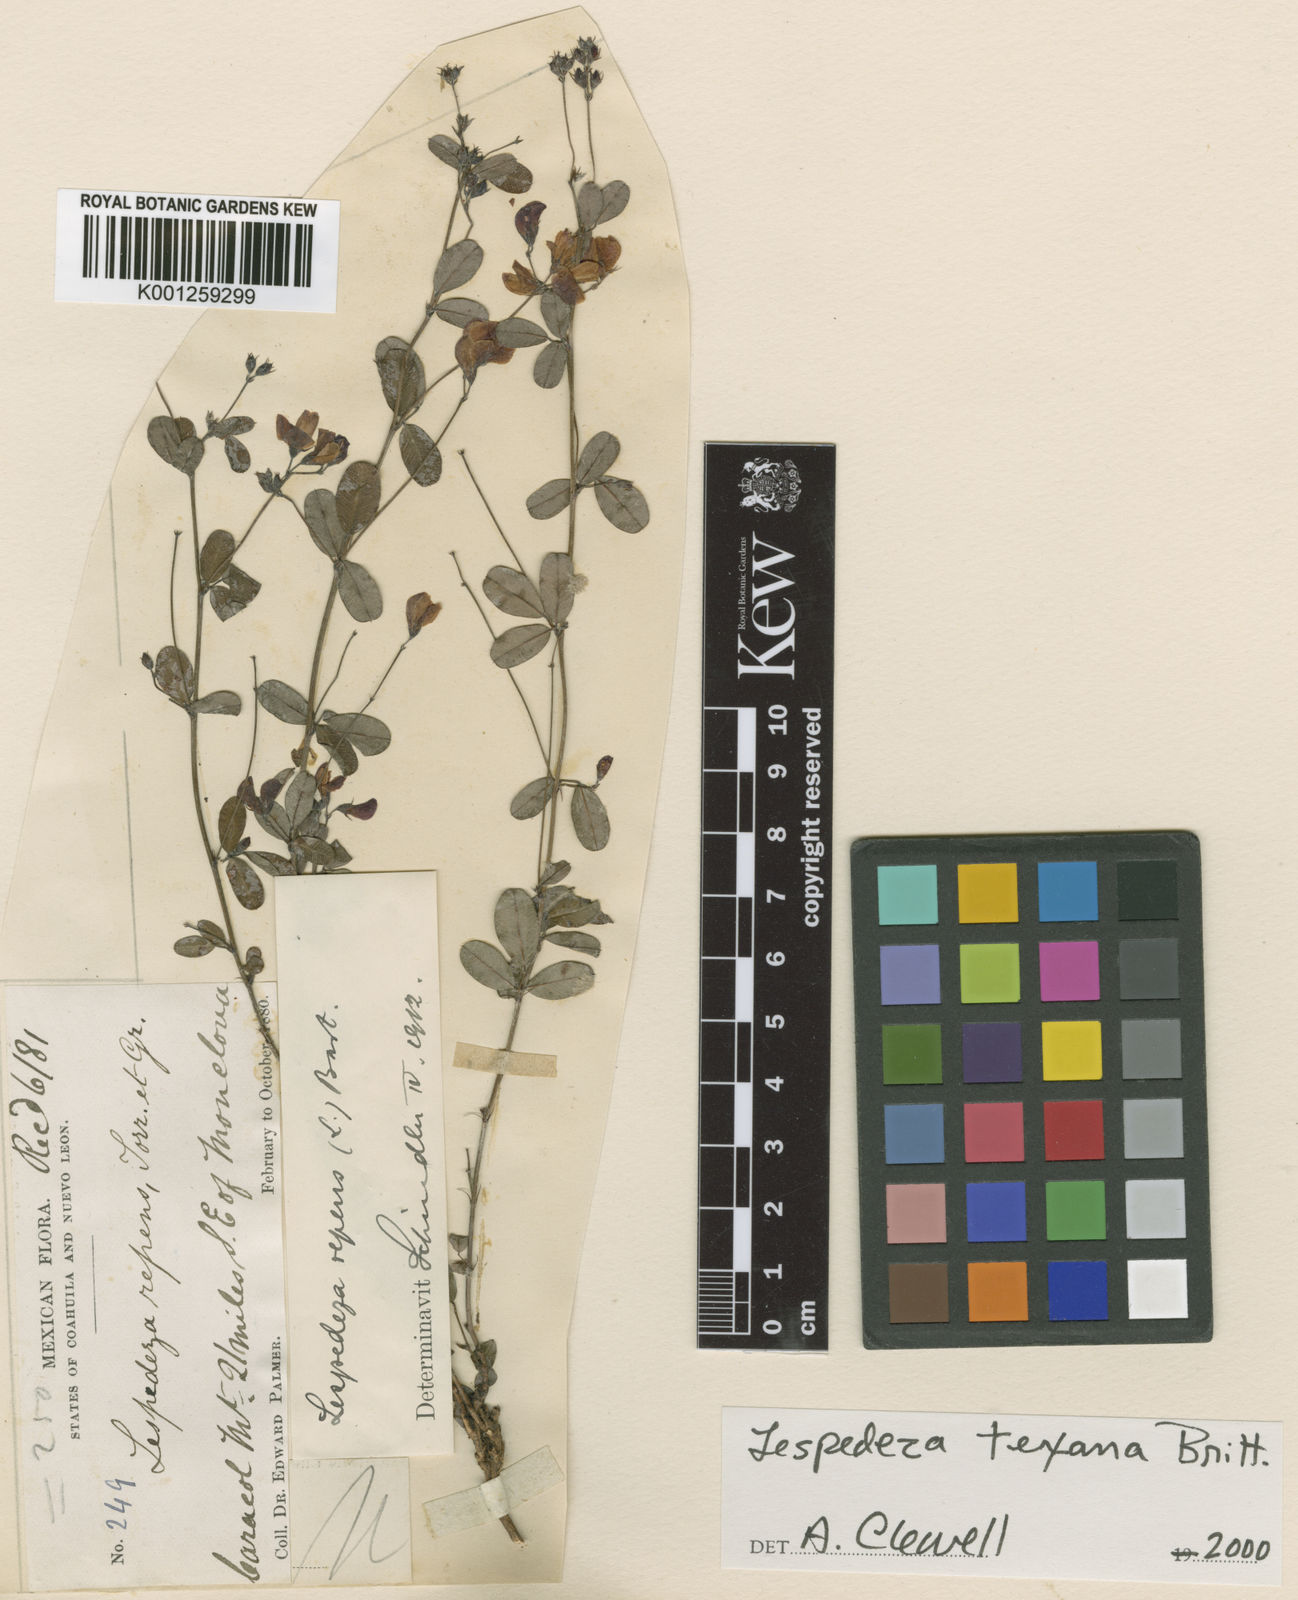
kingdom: Plantae
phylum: Tracheophyta
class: Magnoliopsida
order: Fabales
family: Fabaceae
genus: Lespedeza
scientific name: Lespedeza texana
